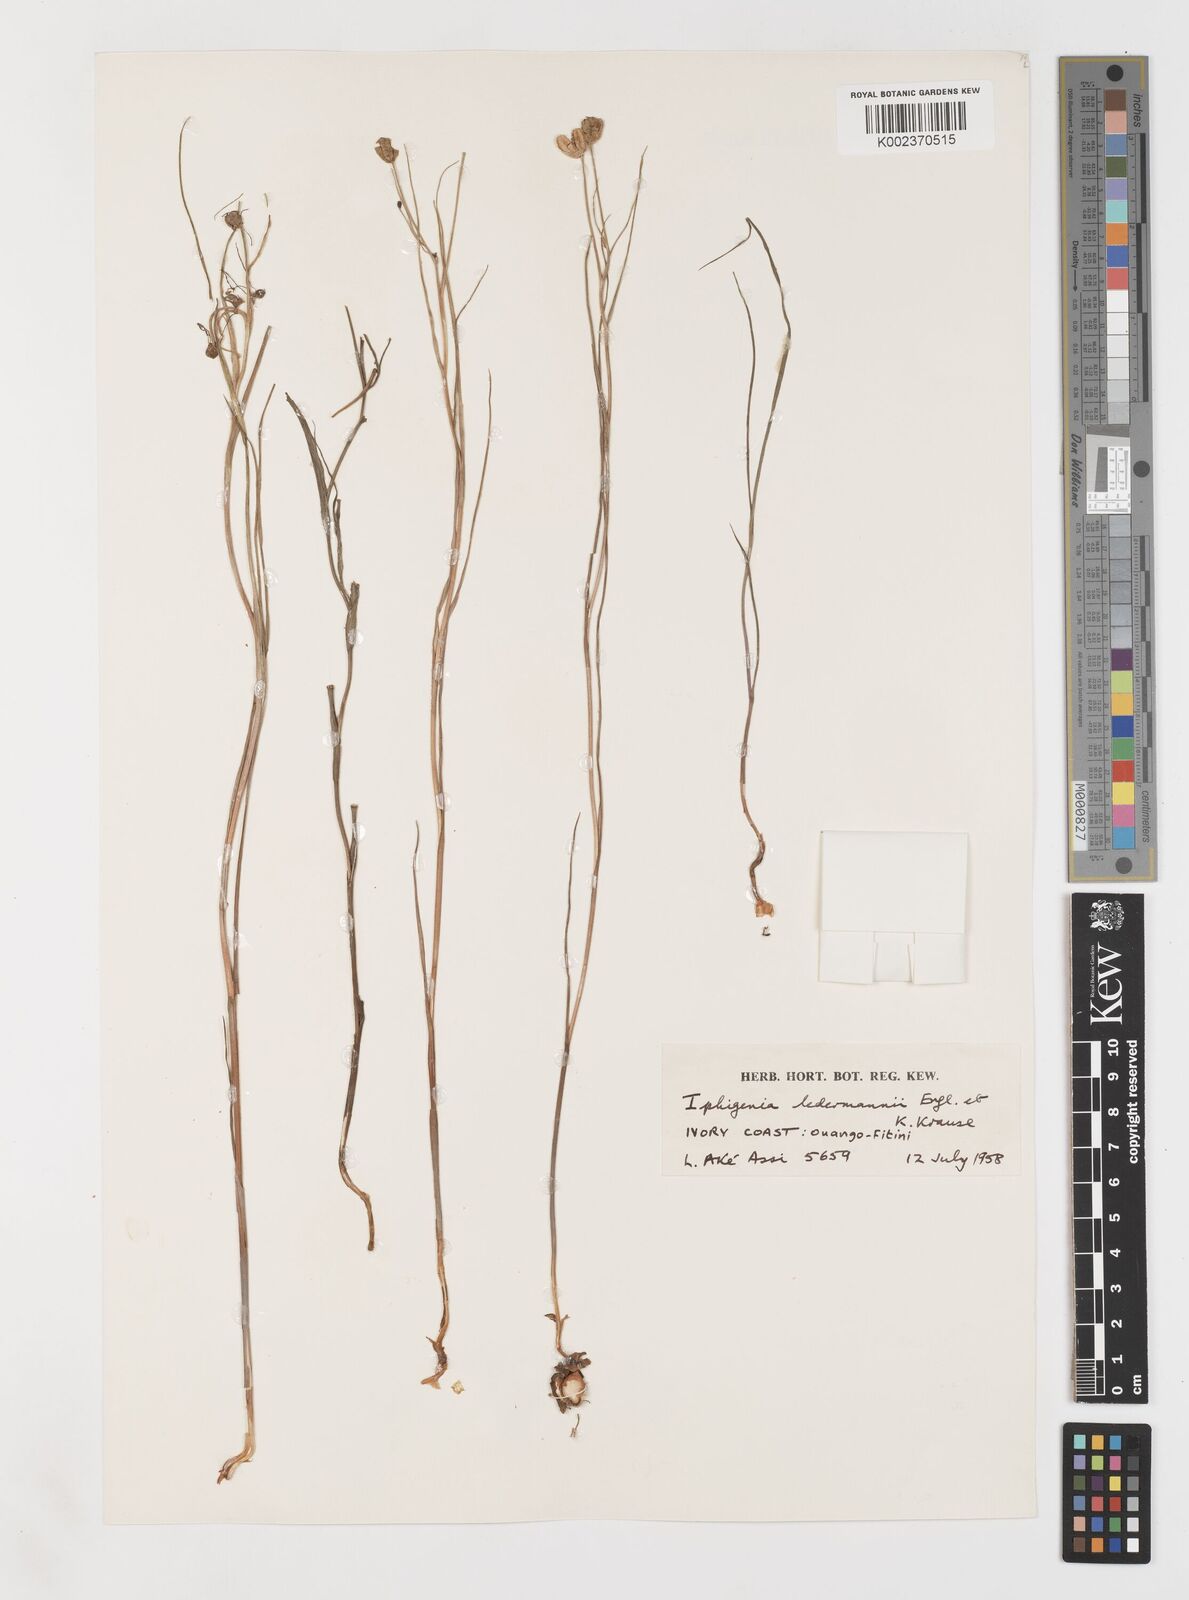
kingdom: Plantae
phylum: Tracheophyta
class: Liliopsida
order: Liliales
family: Colchicaceae
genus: Iphigenia
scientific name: Iphigenia pauciflora
